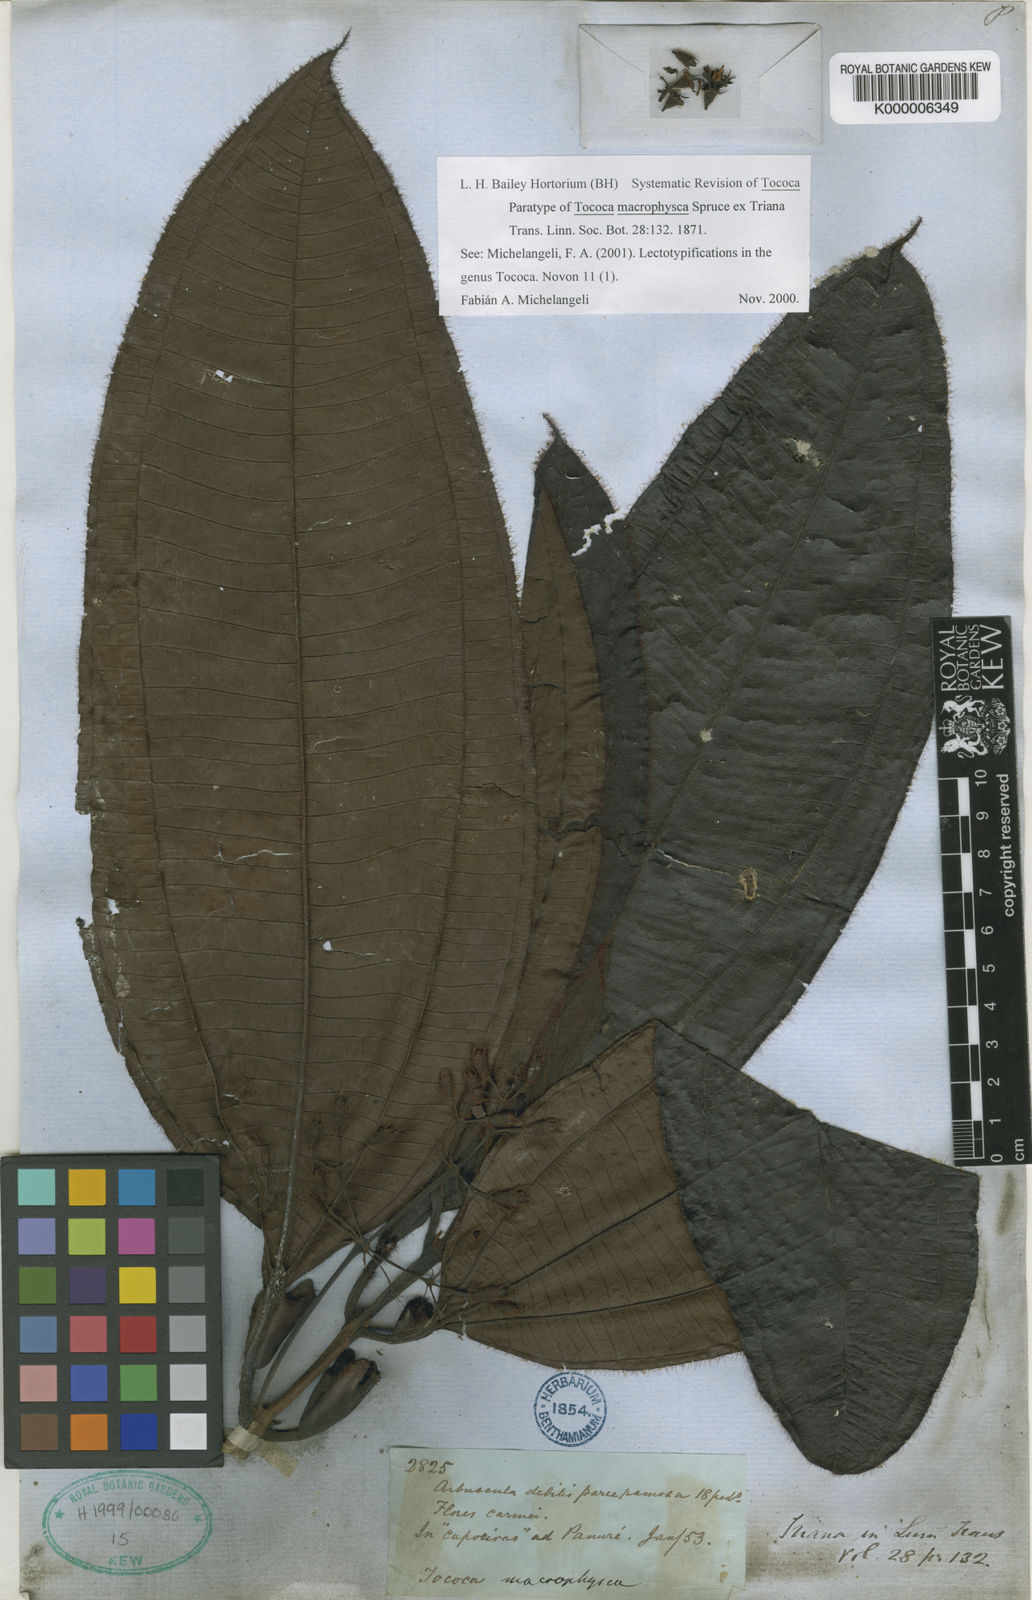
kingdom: Plantae
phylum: Tracheophyta
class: Magnoliopsida
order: Myrtales
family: Melastomataceae
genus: Miconia
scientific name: Miconia macrophysca
